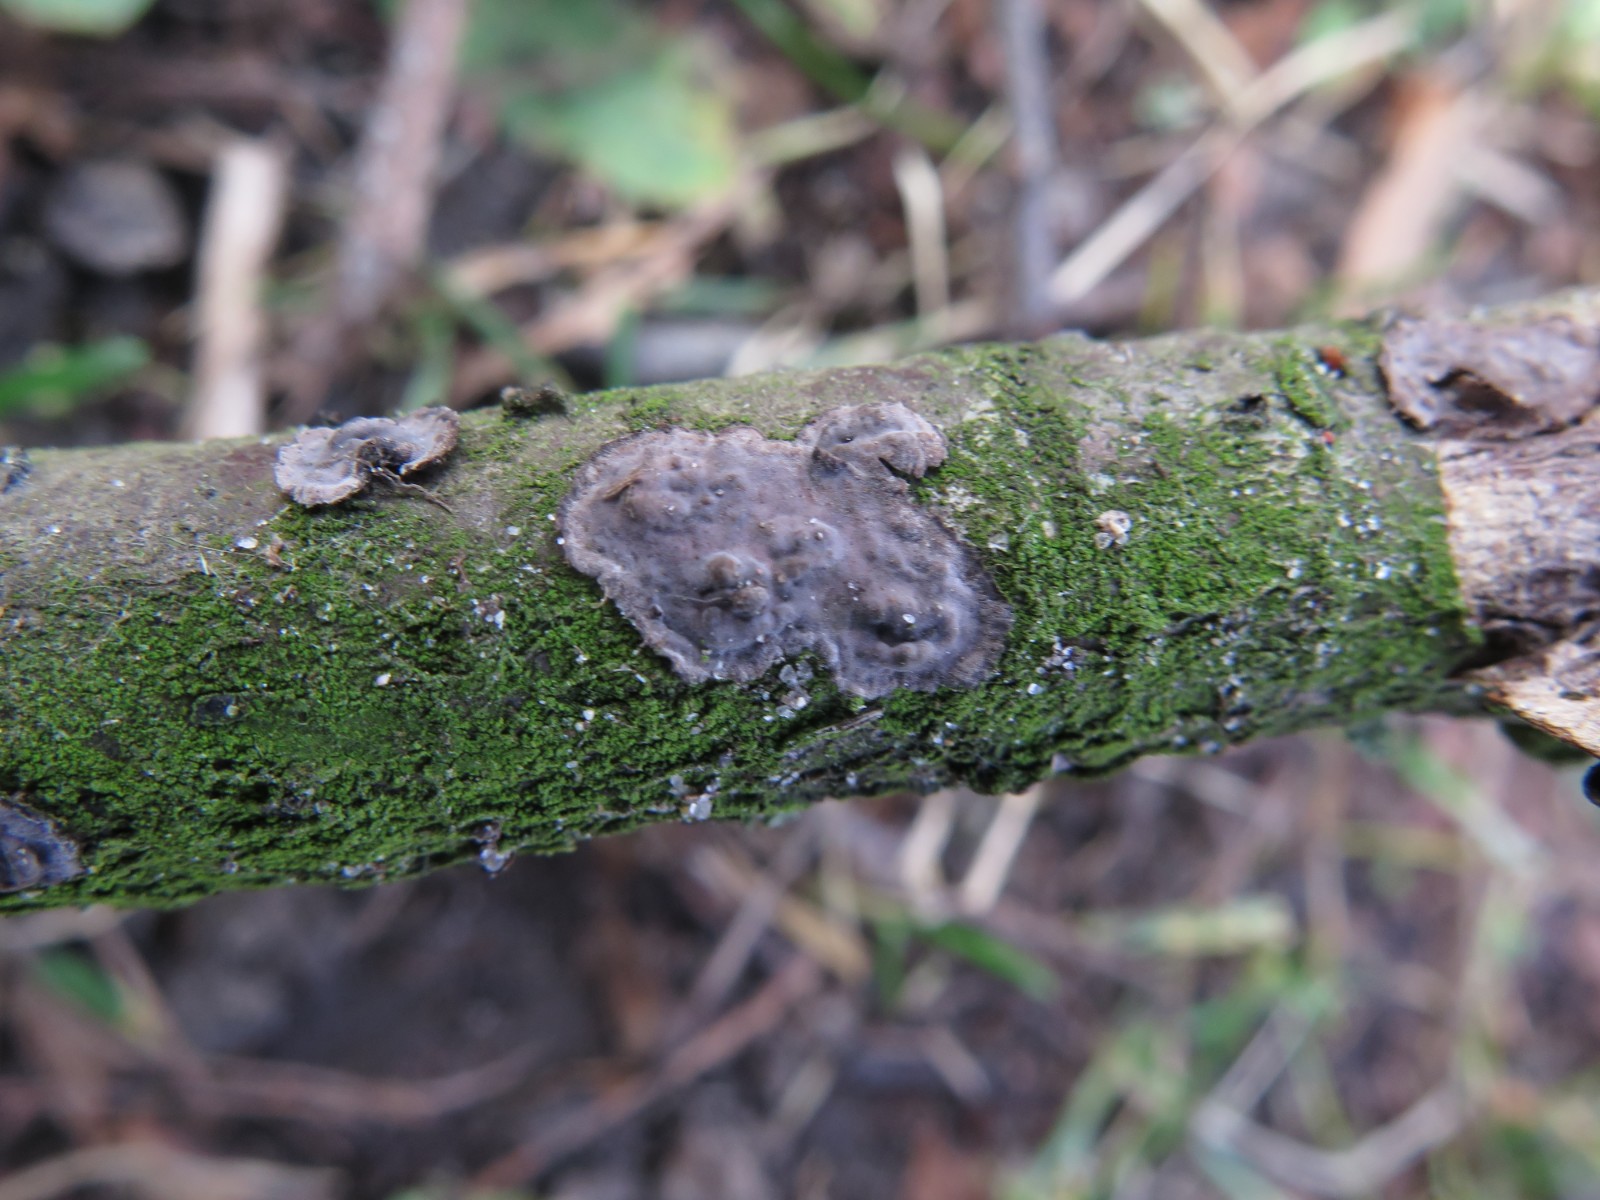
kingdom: Fungi
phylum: Basidiomycota
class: Agaricomycetes
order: Russulales
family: Peniophoraceae
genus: Peniophora
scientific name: Peniophora rufomarginata
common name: linde-voksskind
